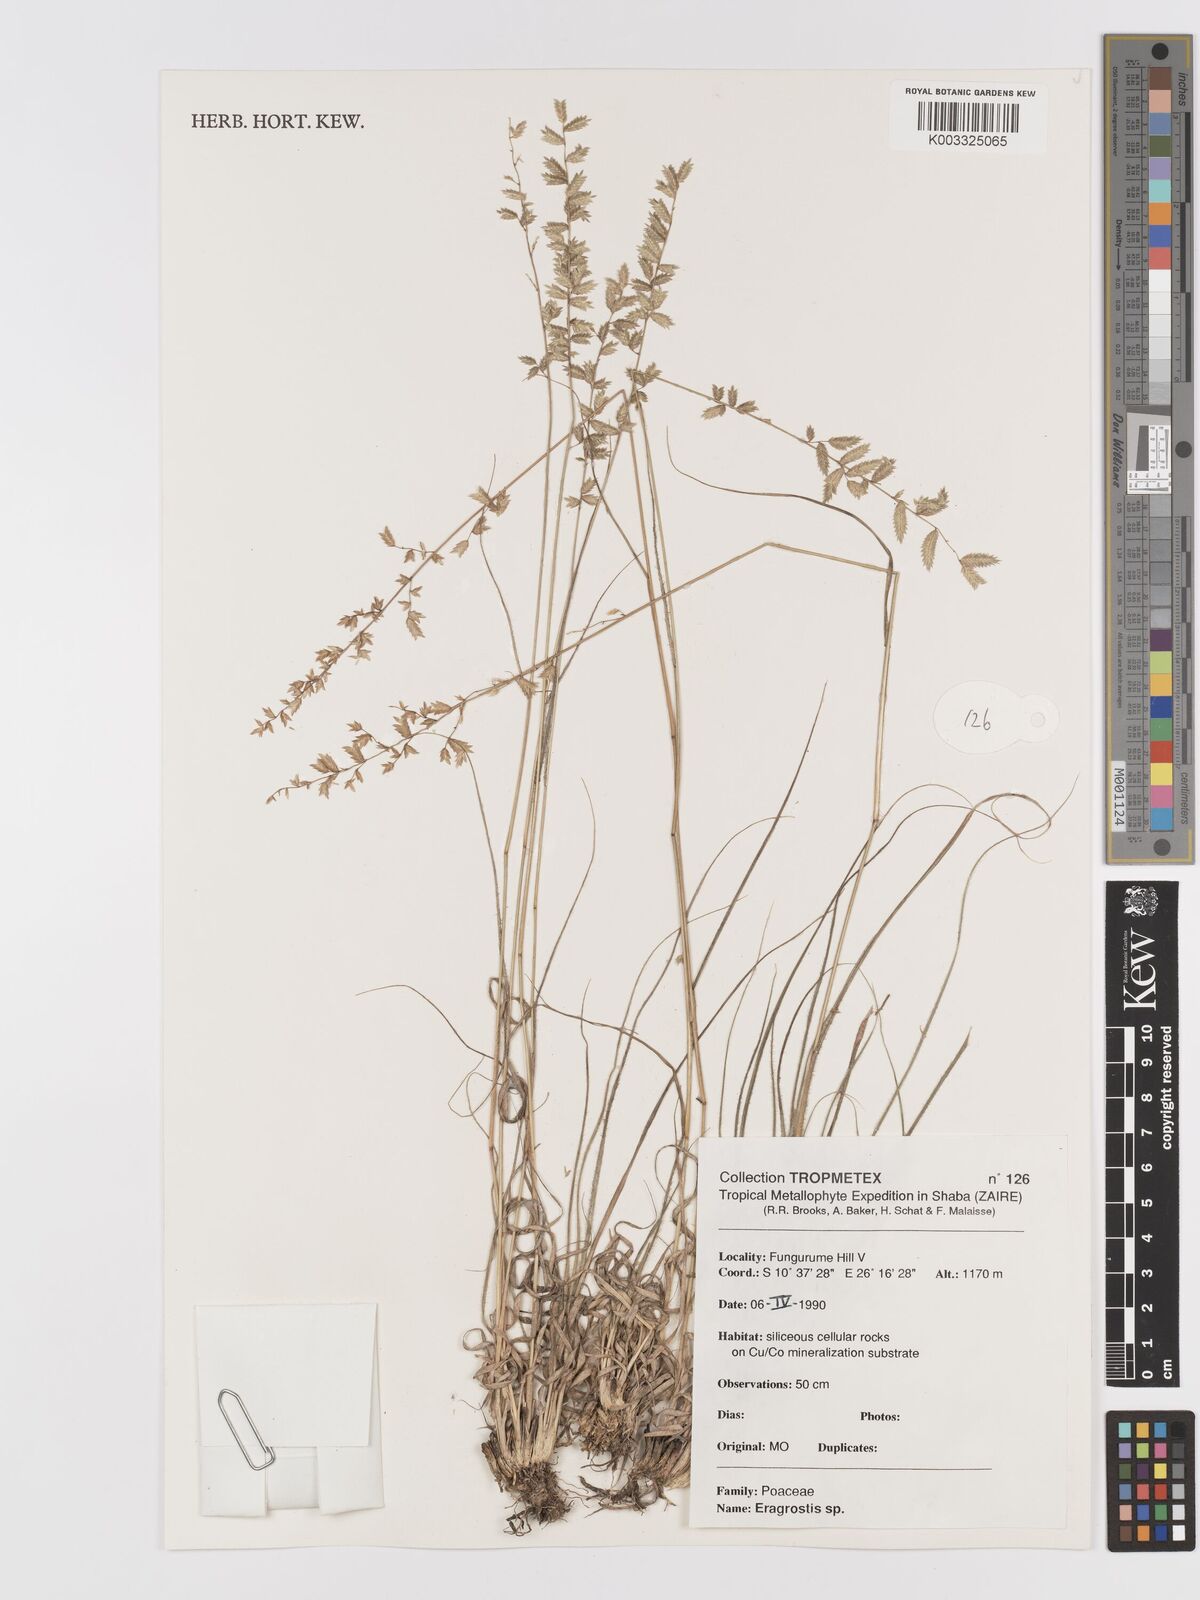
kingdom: Plantae
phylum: Tracheophyta
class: Liliopsida
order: Poales
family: Poaceae
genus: Eragrostis
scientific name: Eragrostis
